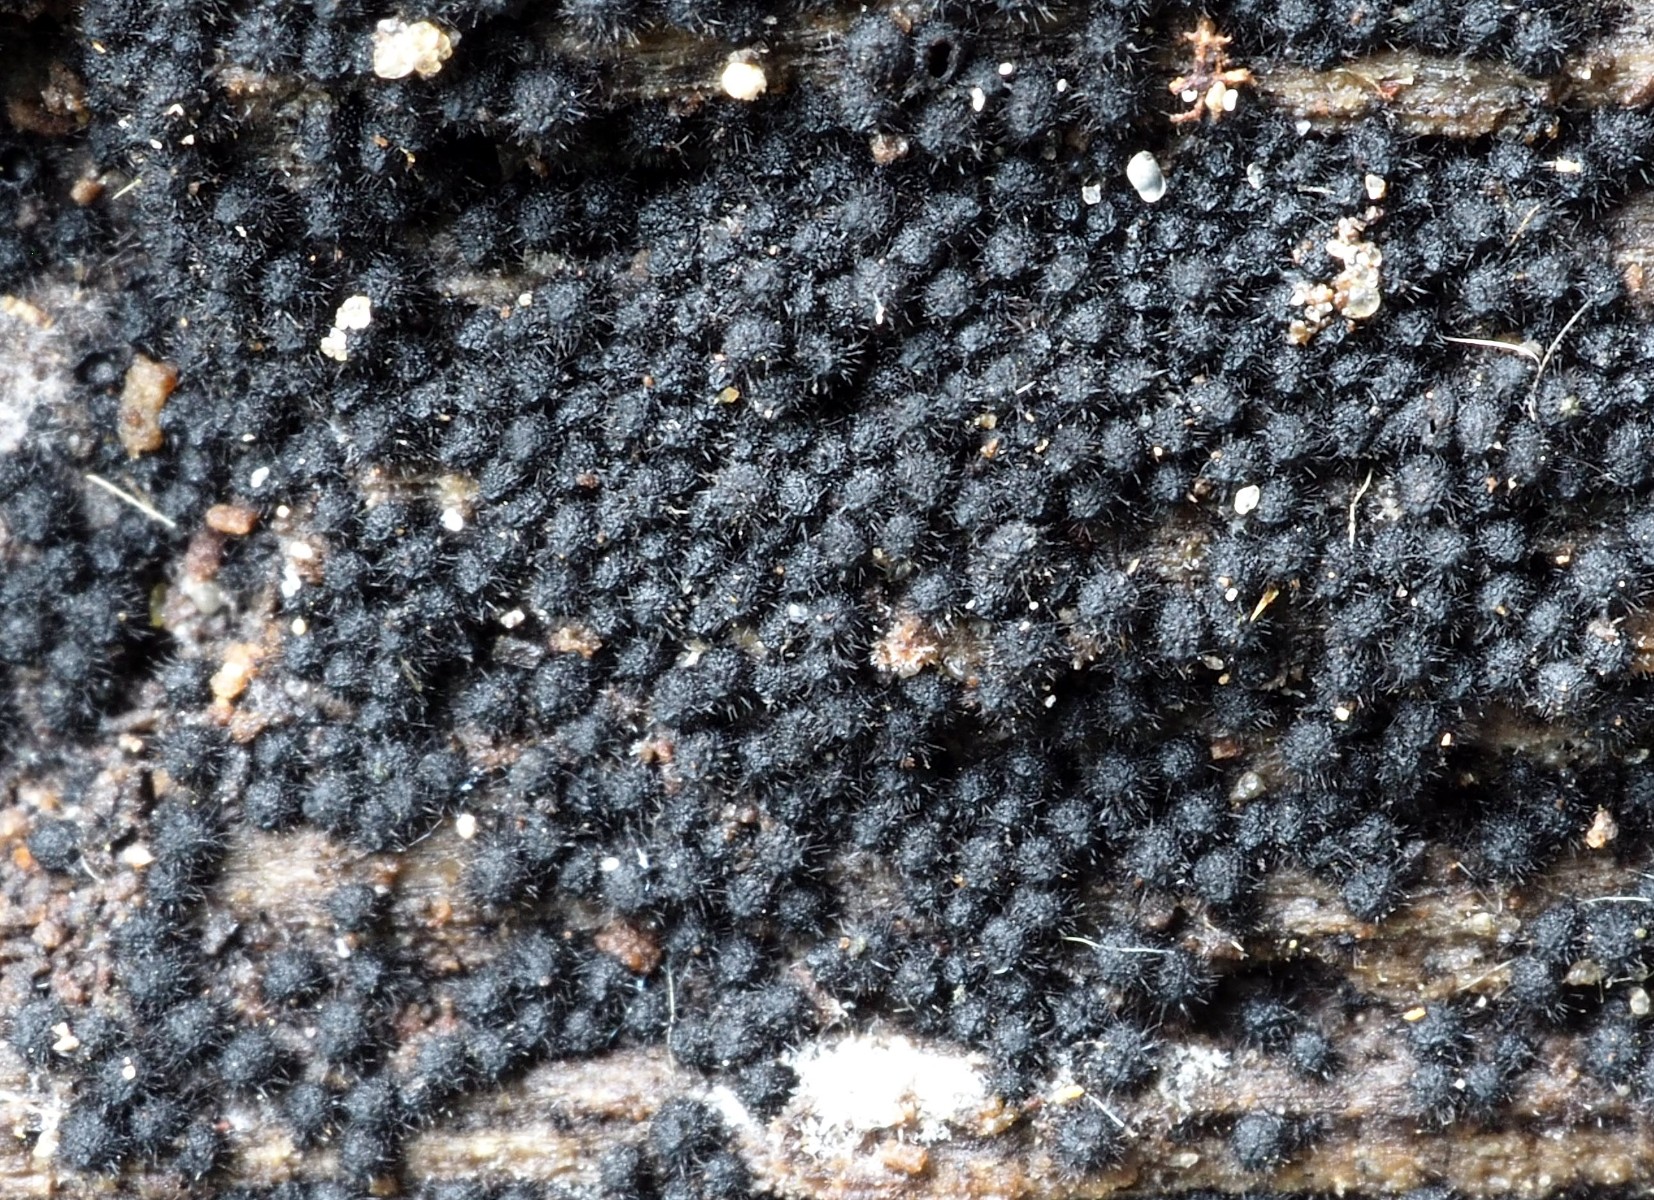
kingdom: Fungi
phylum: Ascomycota
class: Sordariomycetes
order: Sordariales
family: Lasiosphaeriaceae
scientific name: Lasiosphaeriaceae
